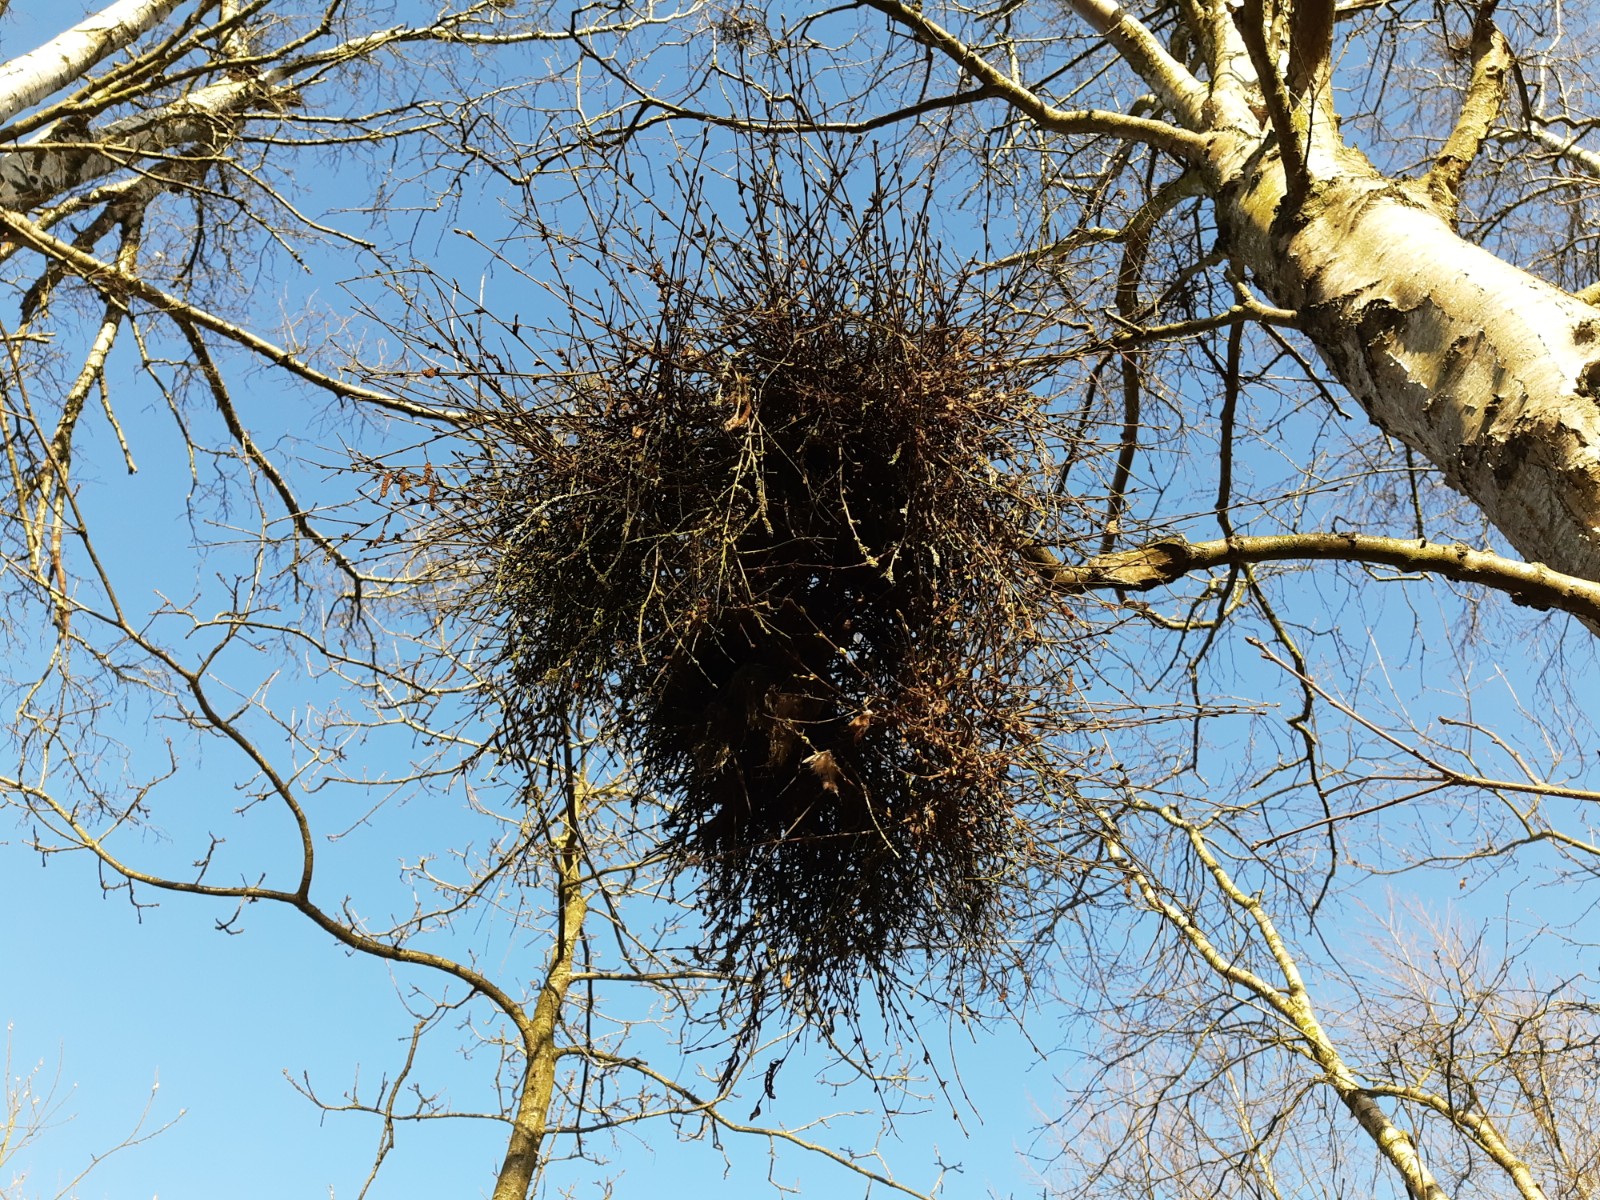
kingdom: Fungi
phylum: Ascomycota
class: Taphrinomycetes
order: Taphrinales
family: Taphrinaceae
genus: Taphrina
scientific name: Taphrina betulina
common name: hekse-sækdug
